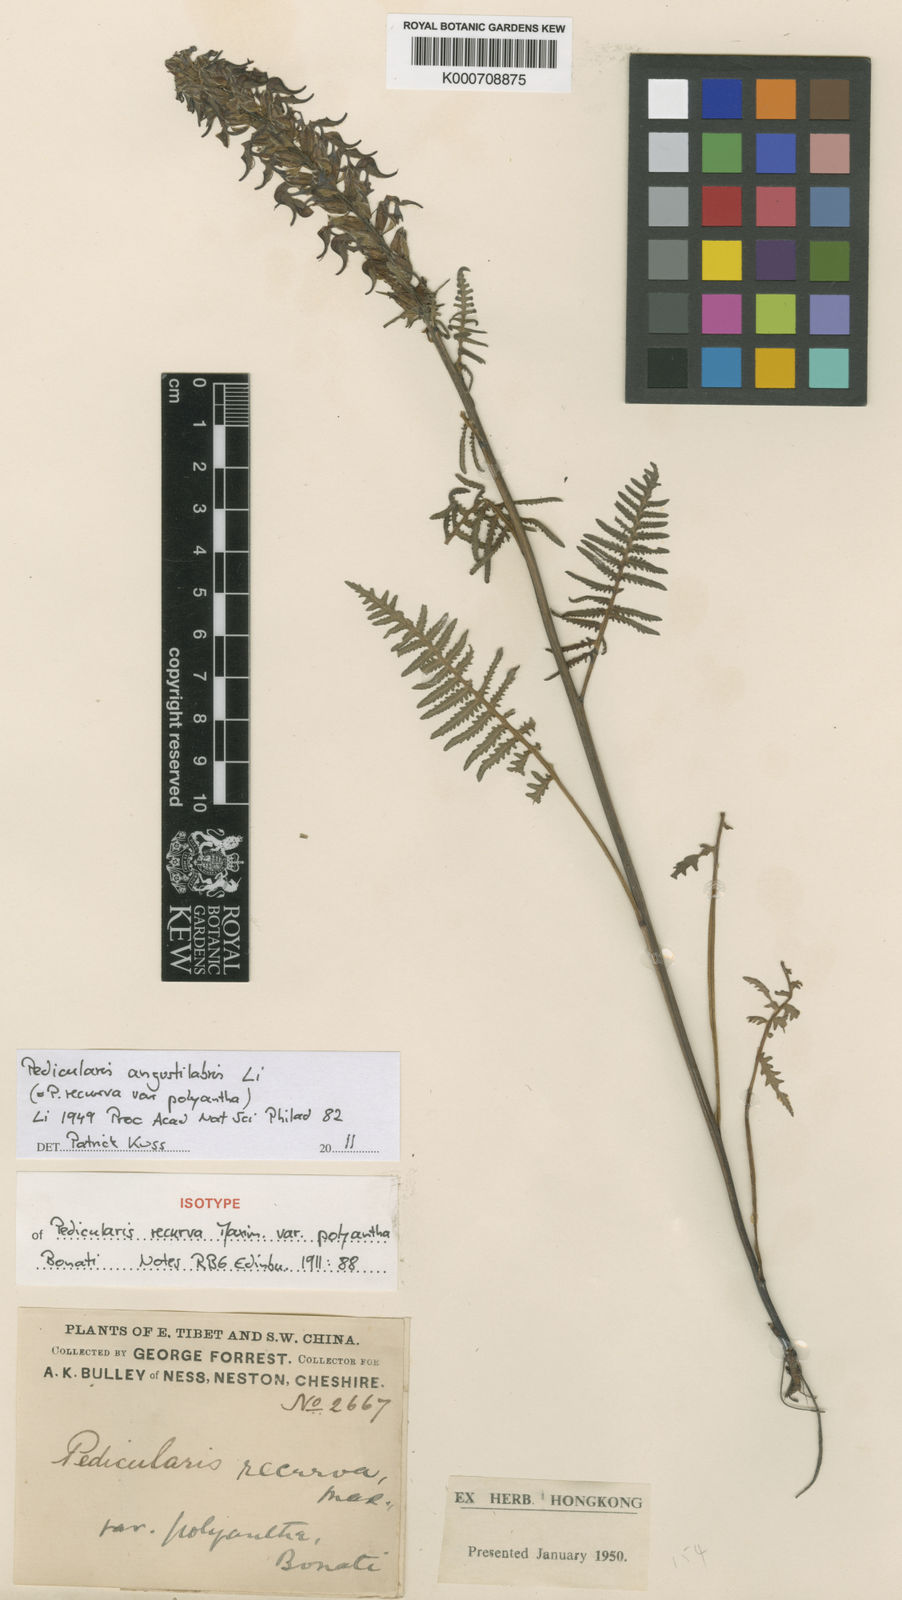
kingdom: Plantae
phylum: Tracheophyta
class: Magnoliopsida
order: Lamiales
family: Orobanchaceae
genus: Pedicularis
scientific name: Pedicularis angustilabris
